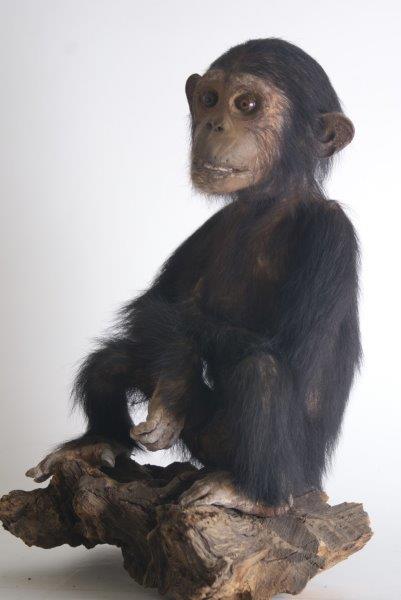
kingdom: Animalia
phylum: Chordata
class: Mammalia
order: Primates
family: Hominidae
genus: Pan
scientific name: Pan troglodytes
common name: Common Chimpanzee
